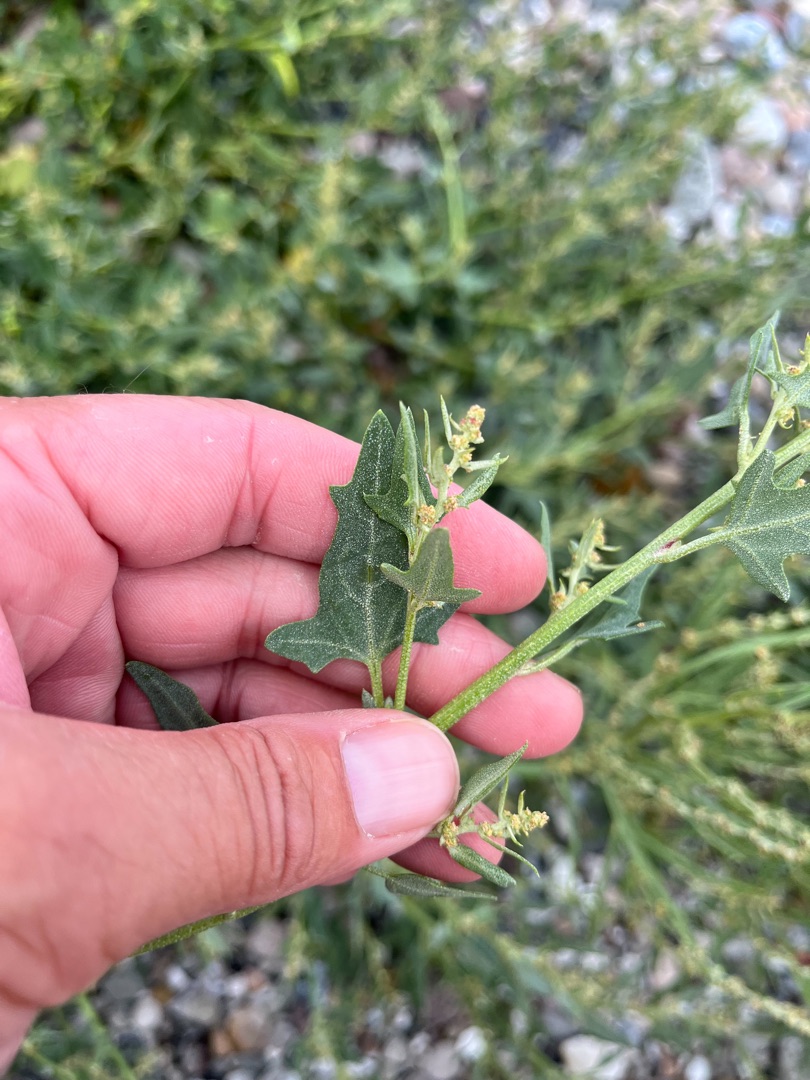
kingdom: Plantae
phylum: Tracheophyta
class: Magnoliopsida
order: Caryophyllales
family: Amaranthaceae
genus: Atriplex
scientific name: Atriplex prostrata
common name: Spyd-mælde
